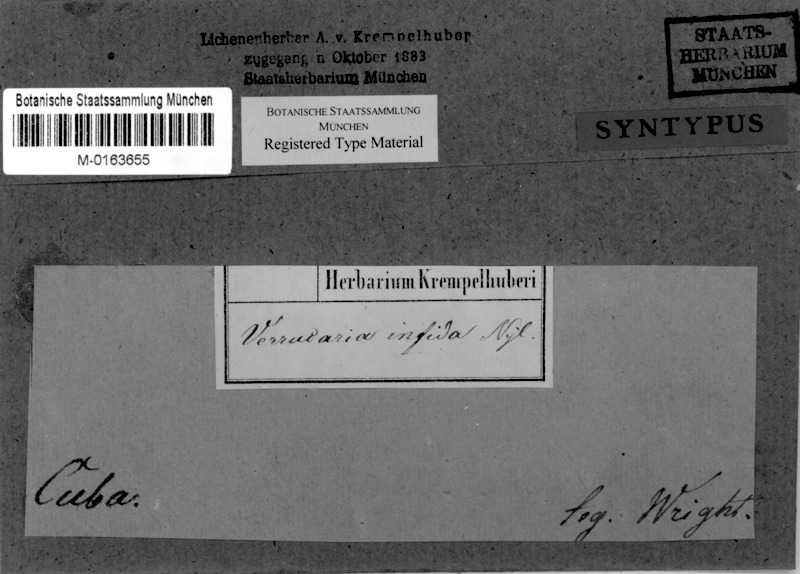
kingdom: Fungi
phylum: Ascomycota
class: Eurotiomycetes
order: Pyrenulales
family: Pyrenulaceae
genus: Pyrenula
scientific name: Pyrenula
